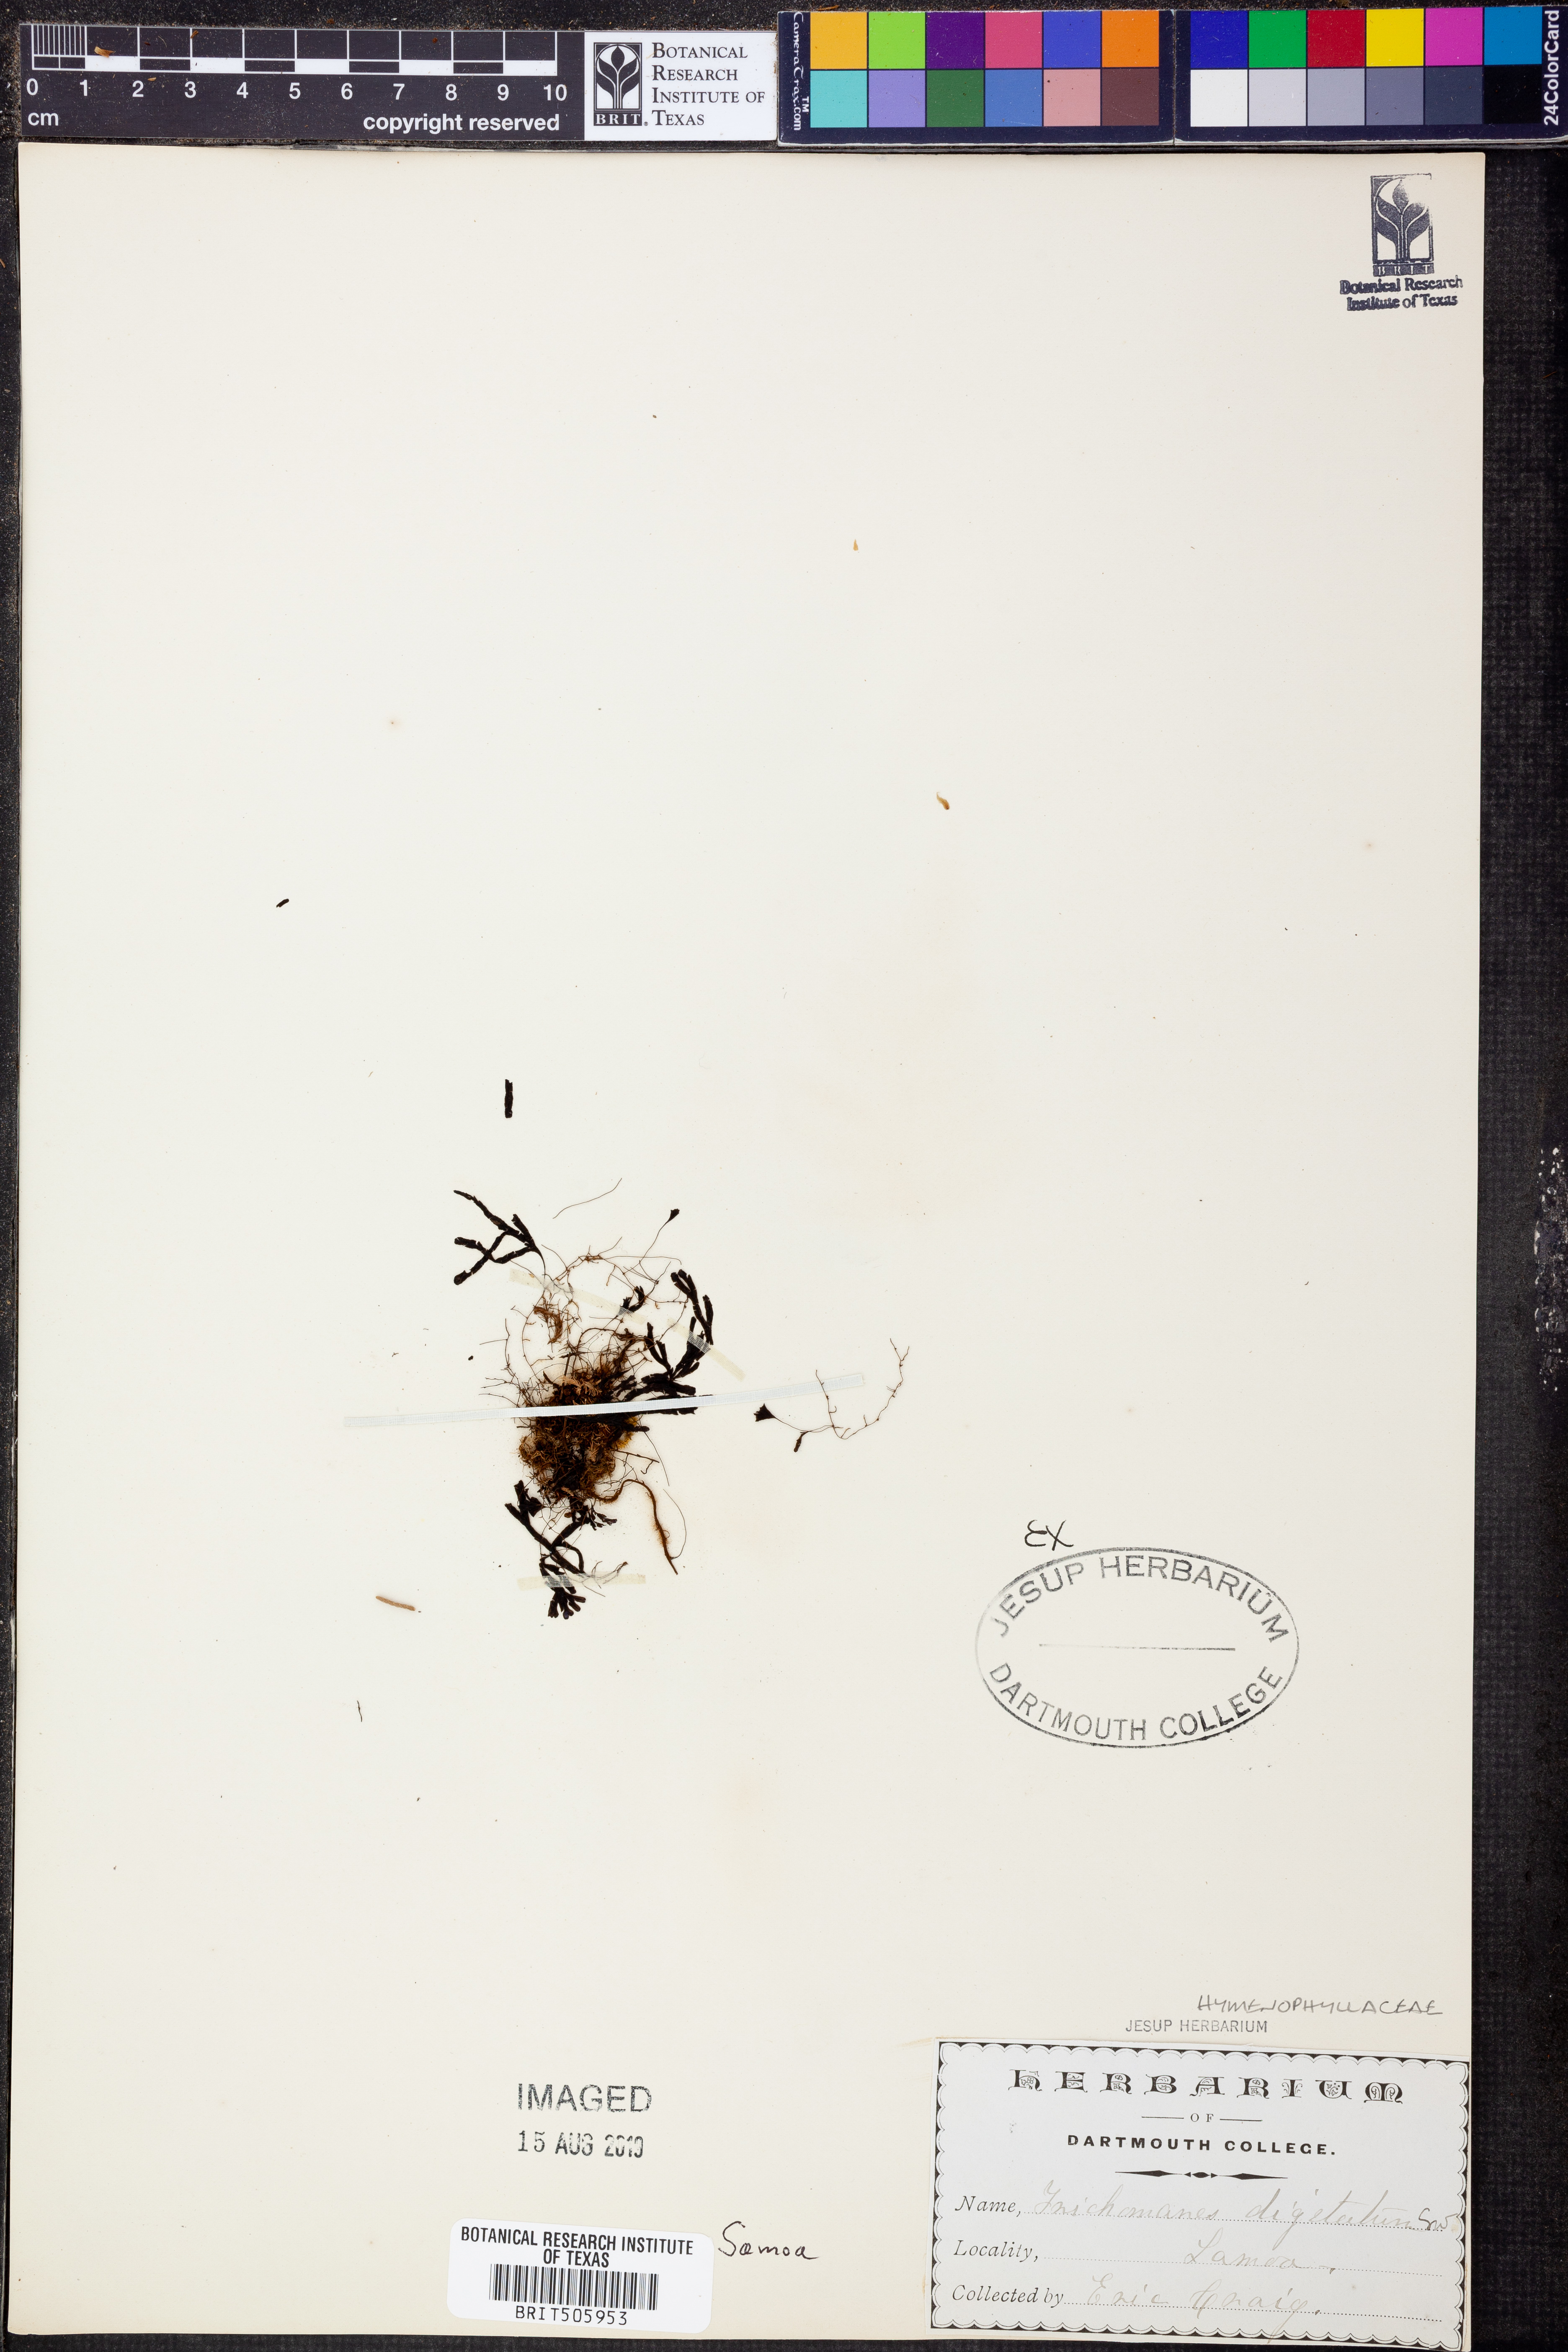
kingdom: Plantae
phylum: Tracheophyta
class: Polypodiopsida
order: Hymenophyllales
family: Hymenophyllaceae
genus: Hymenophyllum
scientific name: Hymenophyllum digitatum
